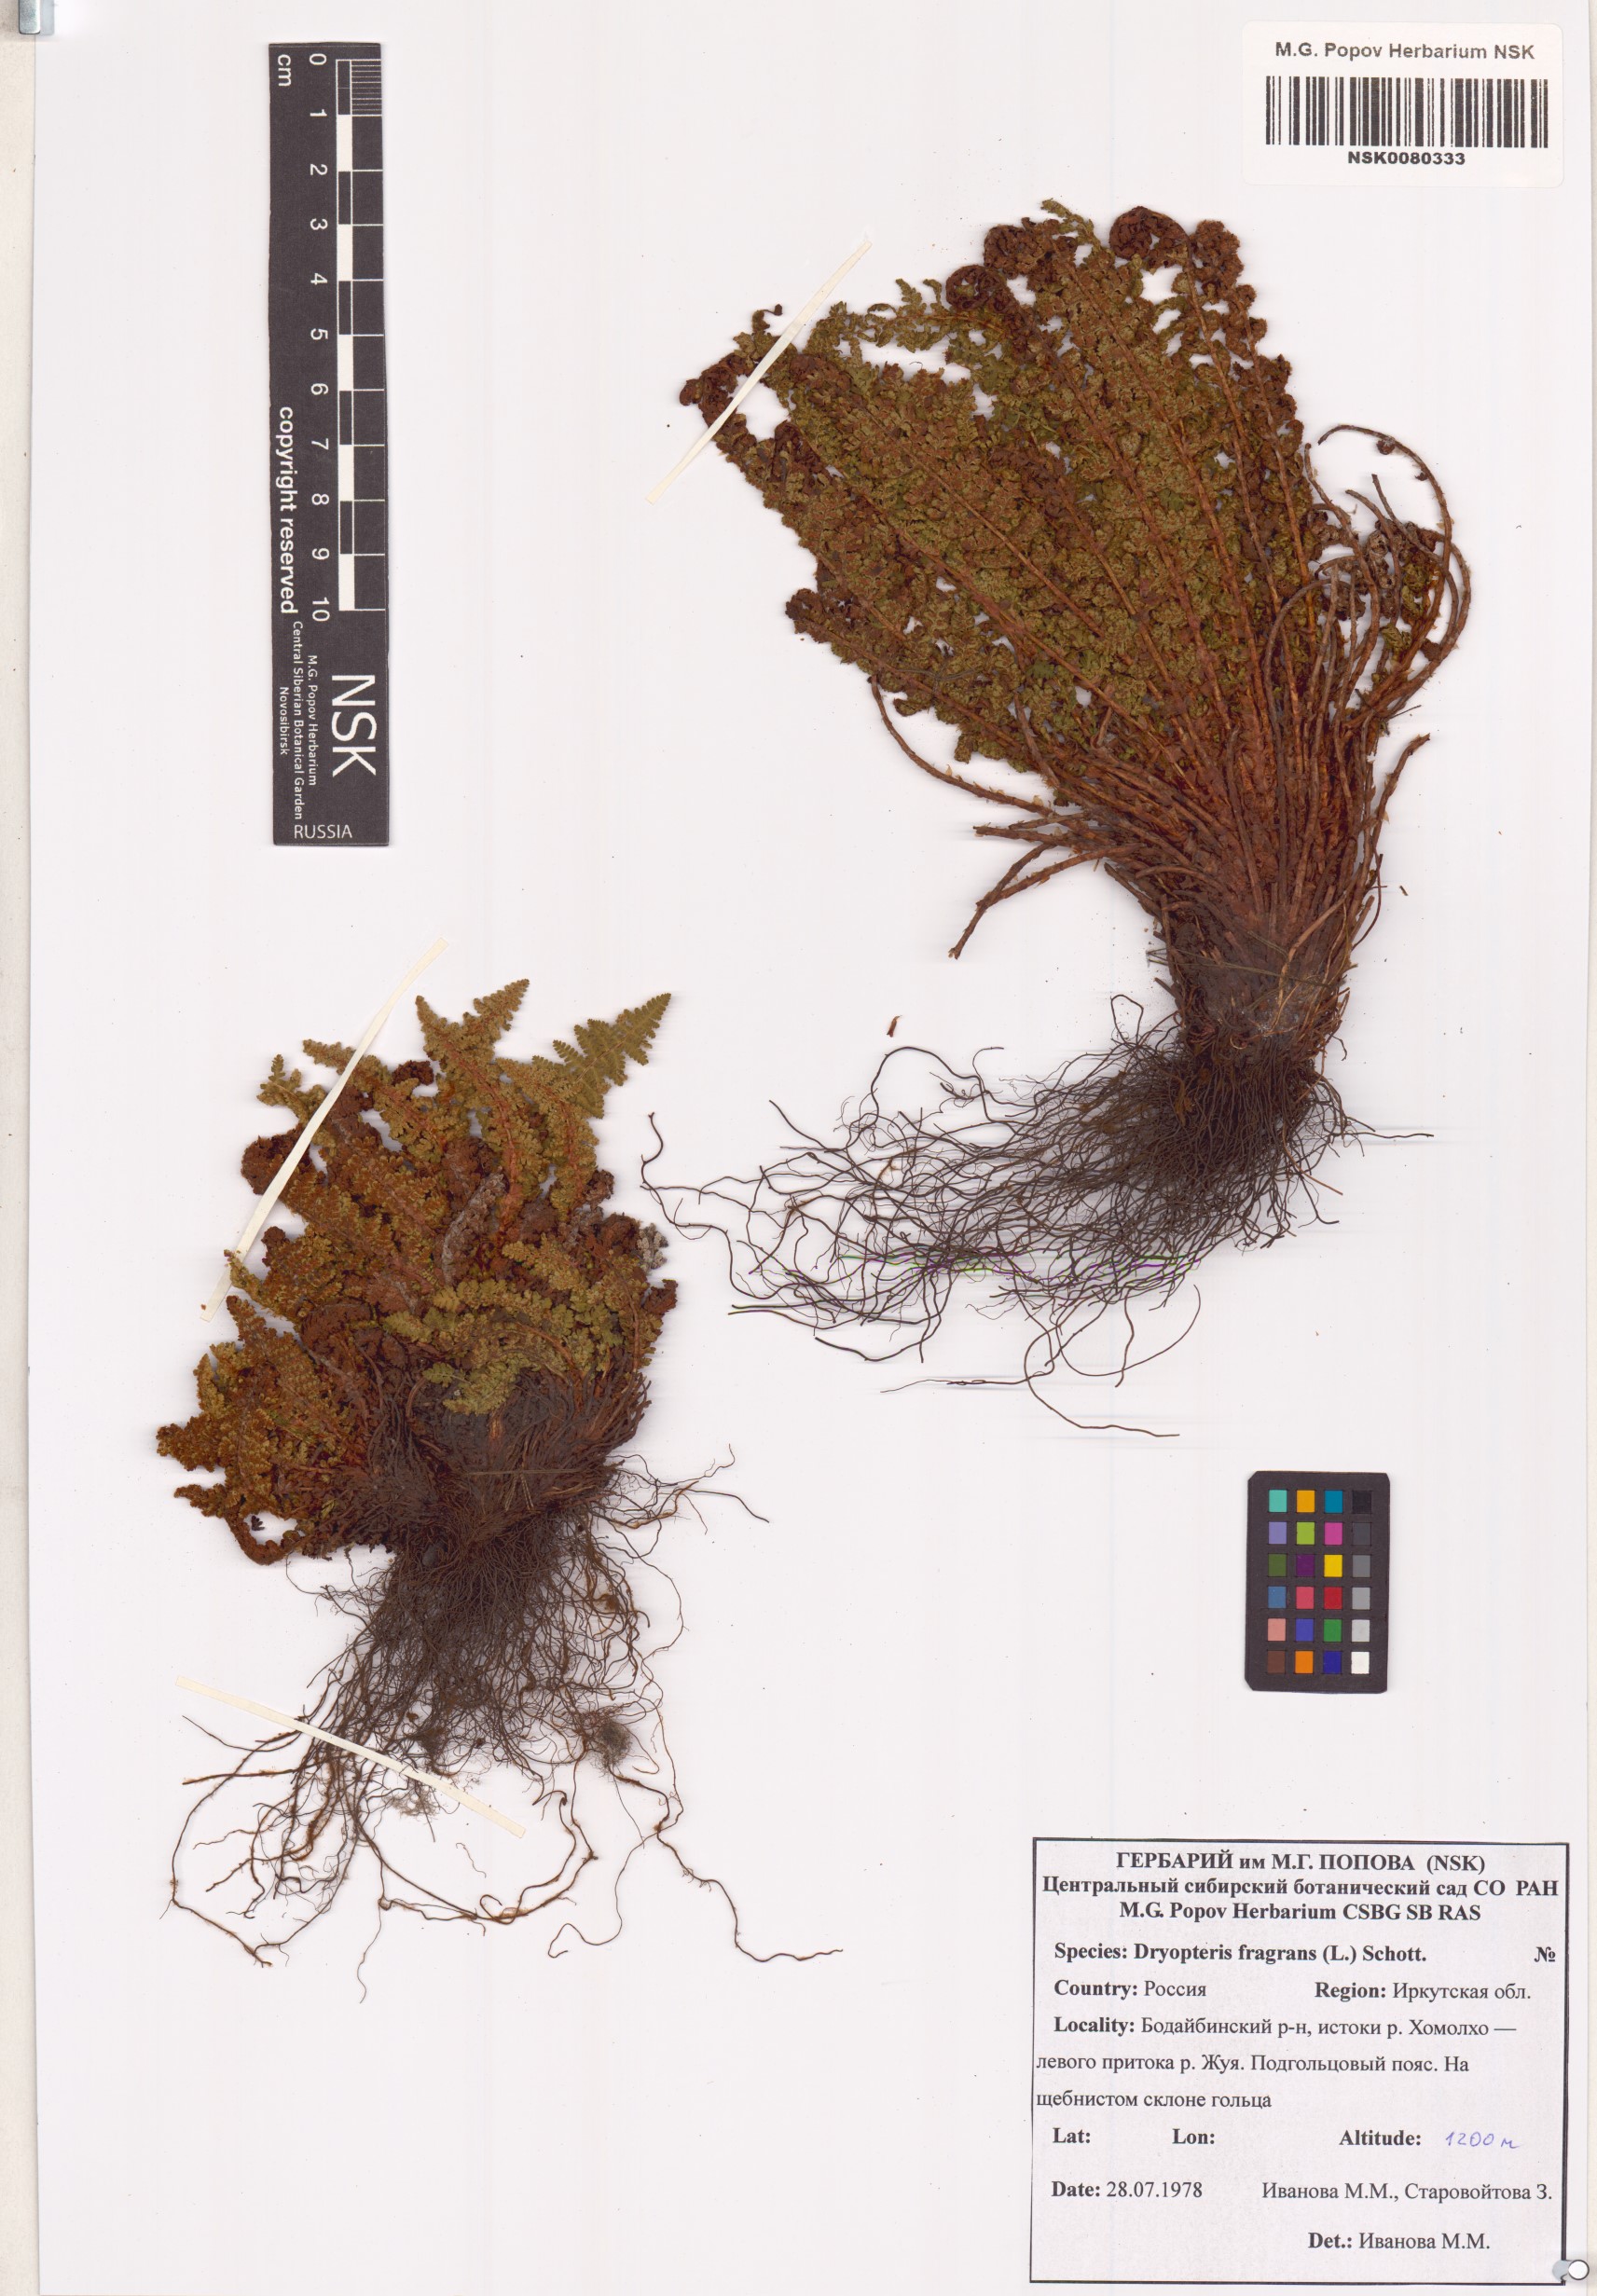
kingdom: Plantae
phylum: Tracheophyta
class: Polypodiopsida
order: Polypodiales
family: Dryopteridaceae
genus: Dryopteris
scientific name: Dryopteris fragrans
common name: Fragrant wood fern
